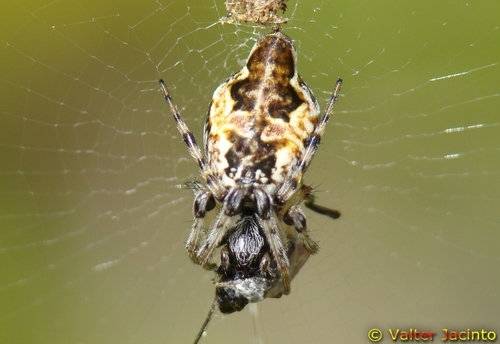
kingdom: Animalia
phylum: Arthropoda
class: Arachnida
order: Araneae
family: Araneidae
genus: Cyclosa
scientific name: Cyclosa conica
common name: Conical trashline orbweaver
